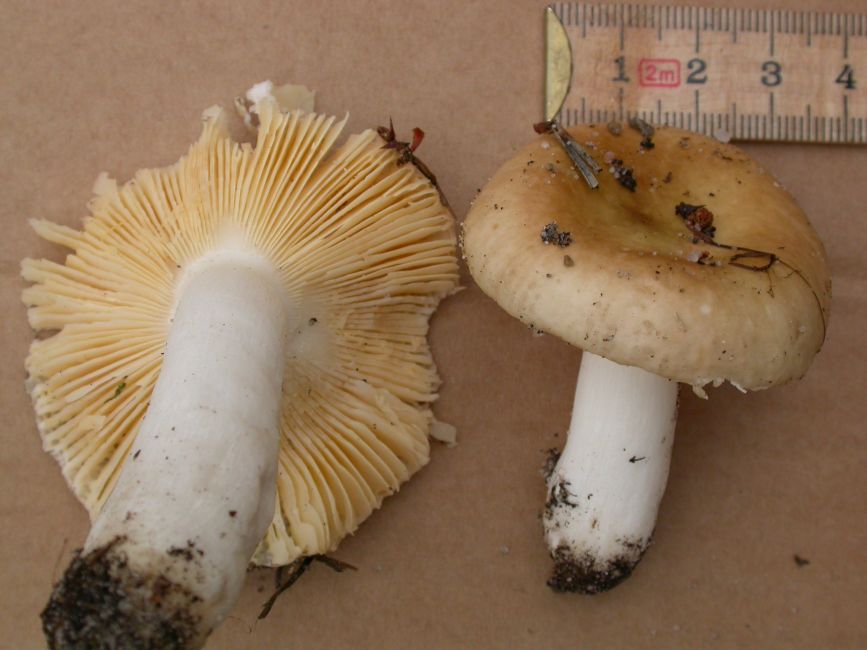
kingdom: Fungi
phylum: Basidiomycota
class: Agaricomycetes
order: Russulales
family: Russulaceae
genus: Russula
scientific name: Russula cessans
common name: fyrre-skørhat
